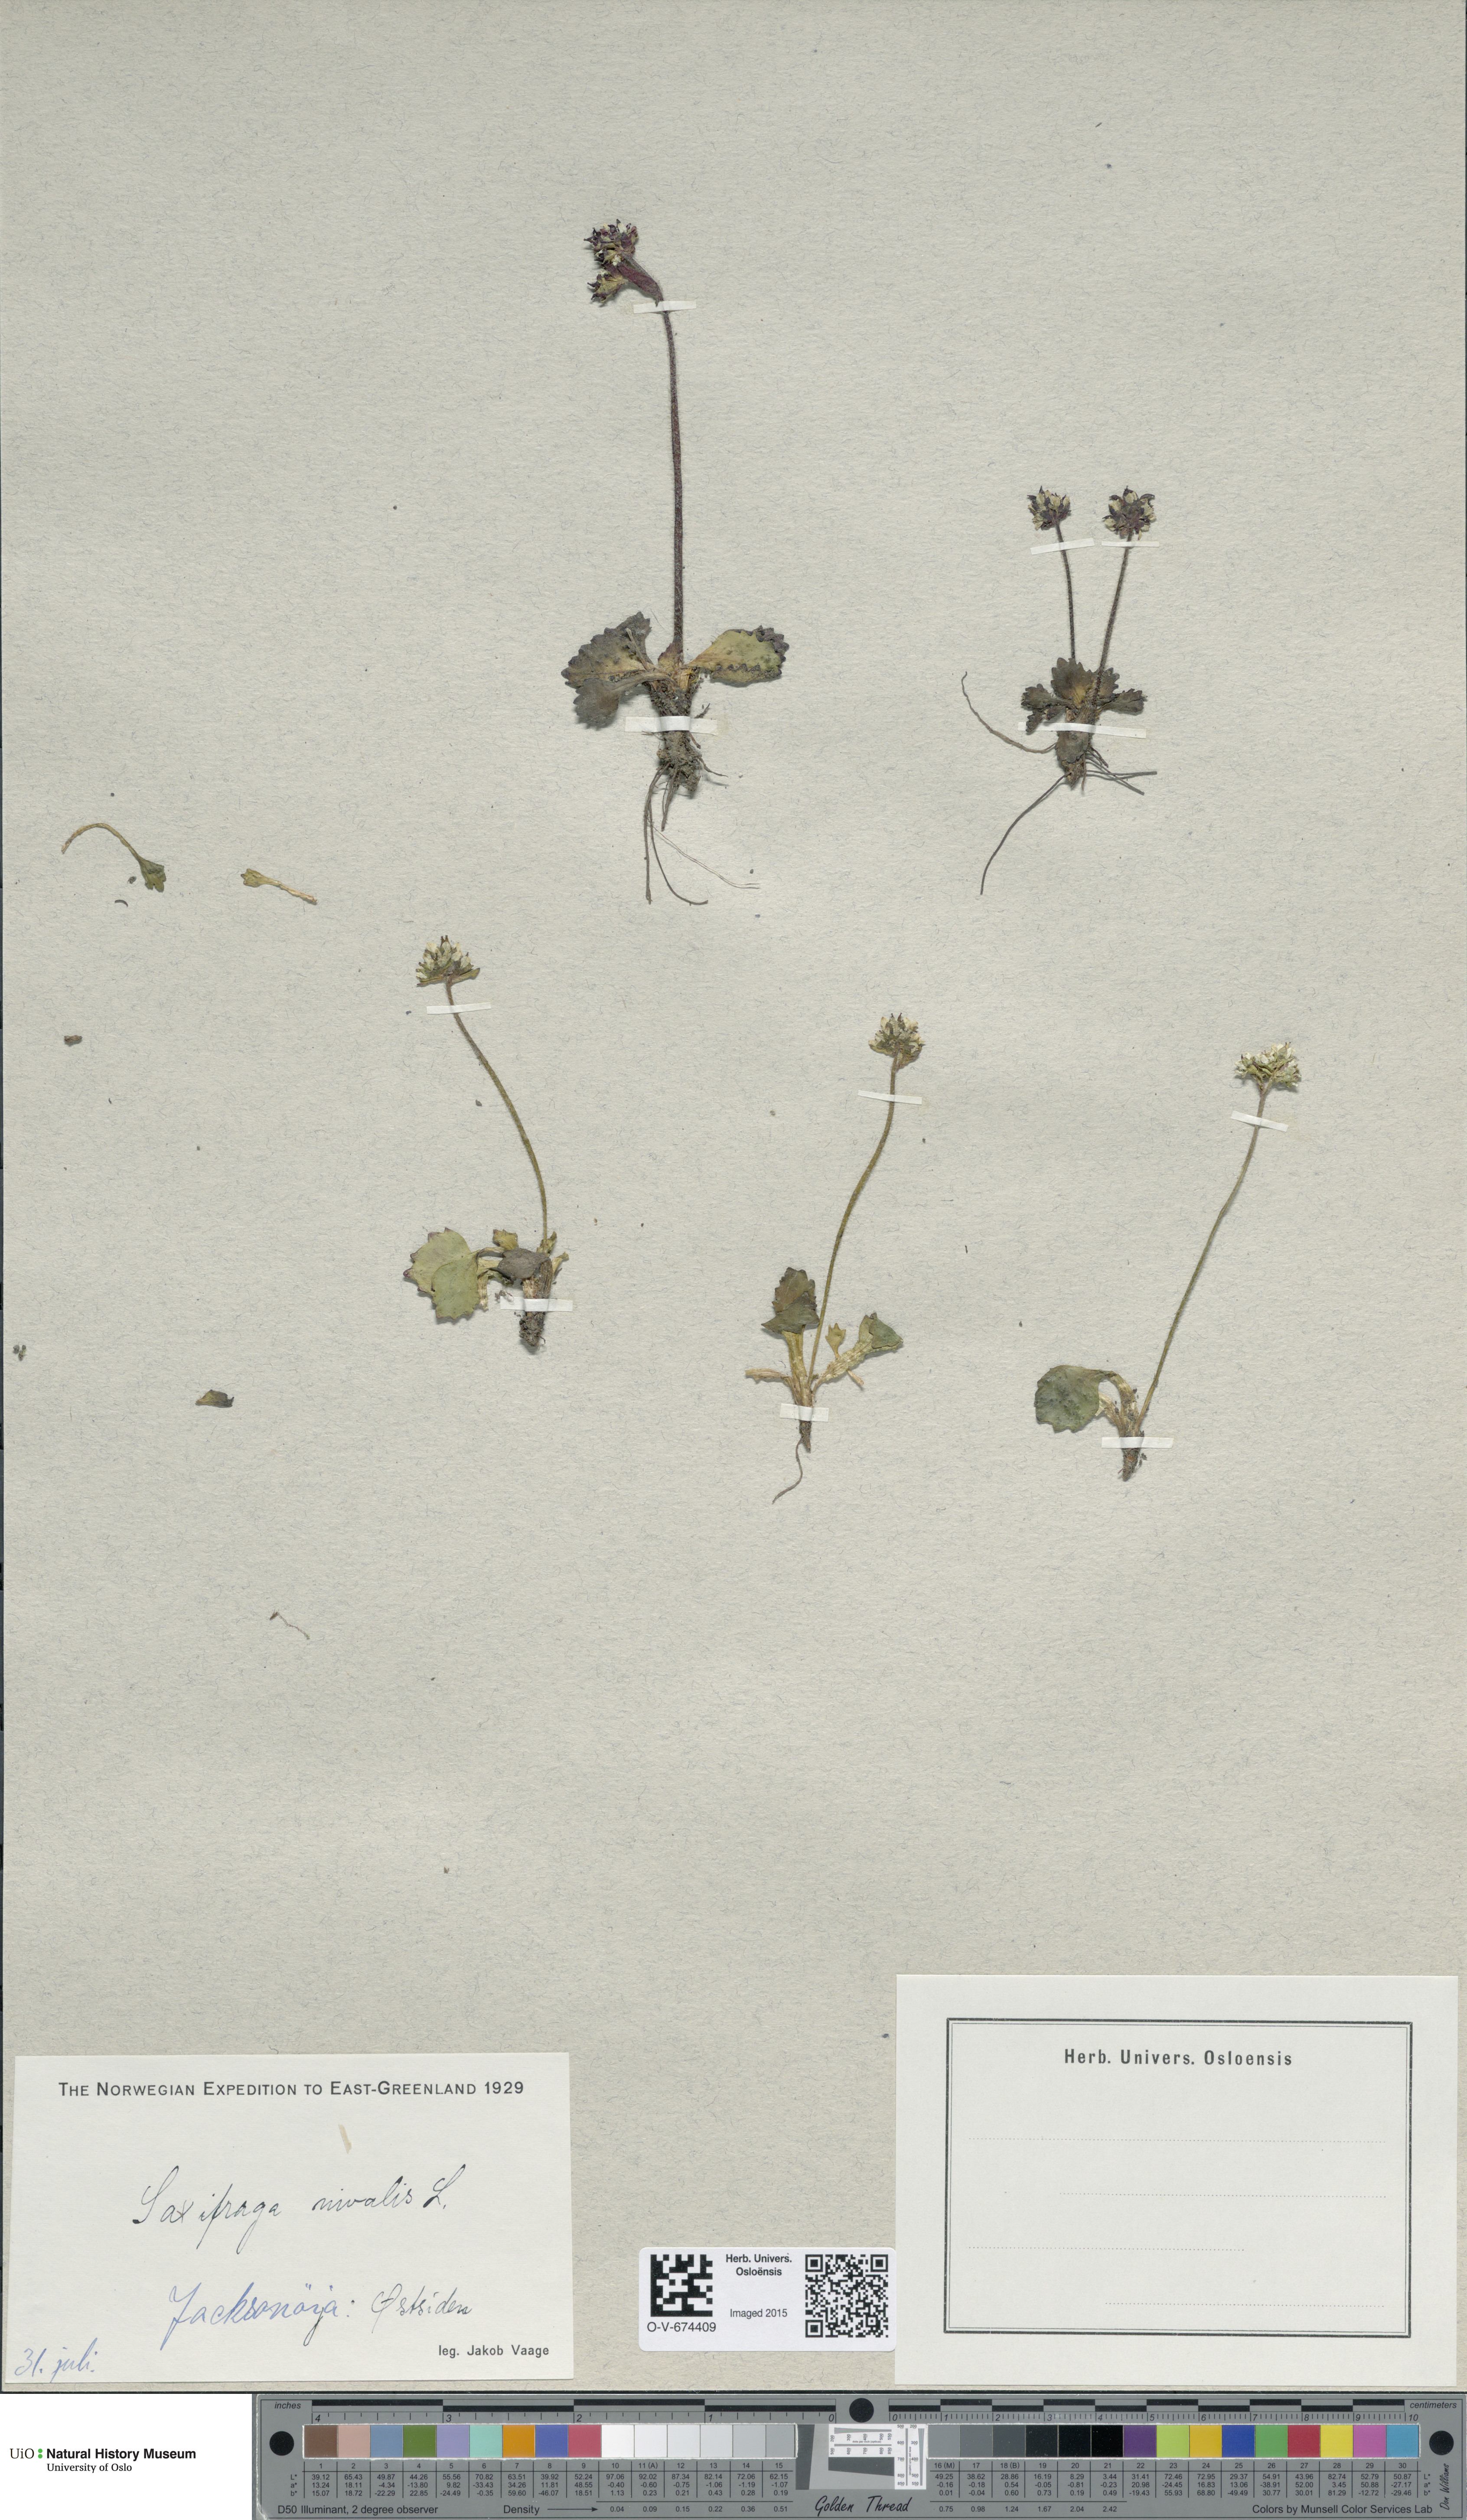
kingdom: Plantae
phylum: Tracheophyta
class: Magnoliopsida
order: Saxifragales
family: Saxifragaceae
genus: Micranthes
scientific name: Micranthes nivalis
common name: Alpine saxifrage
